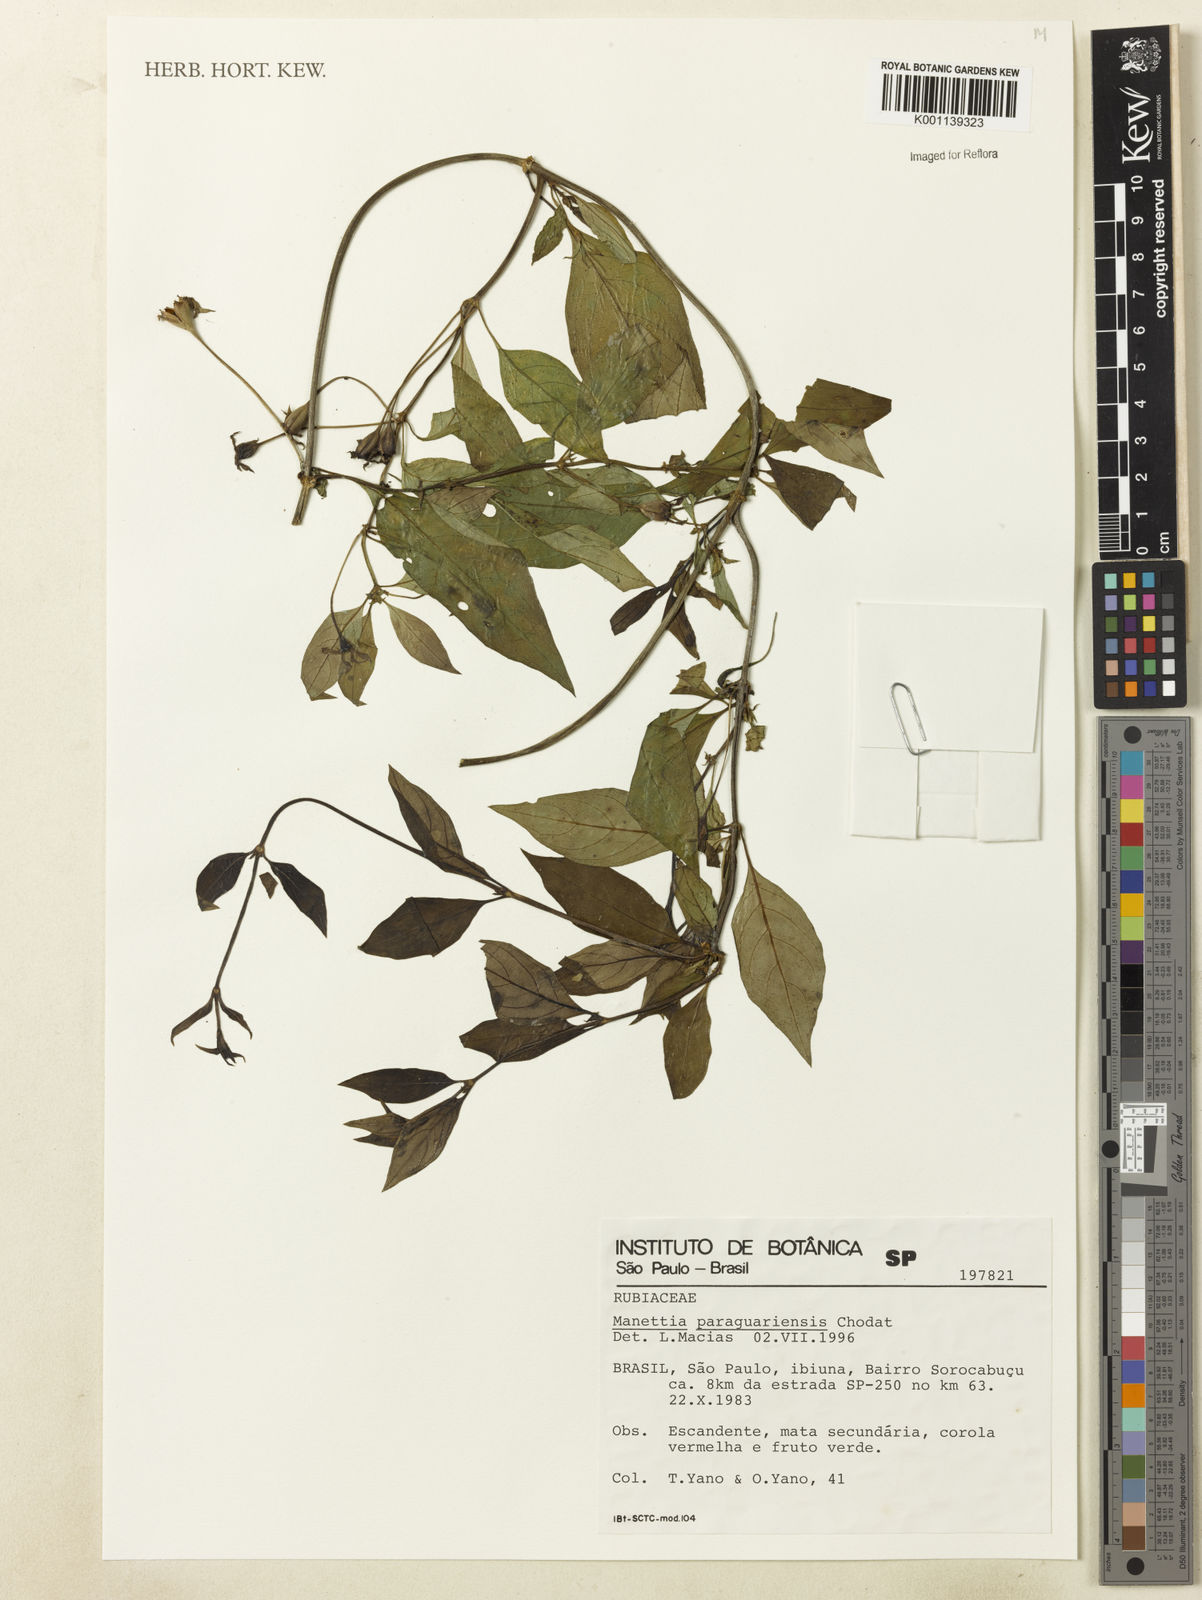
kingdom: Plantae
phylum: Tracheophyta
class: Magnoliopsida
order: Gentianales
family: Rubiaceae
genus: Manettia
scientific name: Manettia paraguariensis
